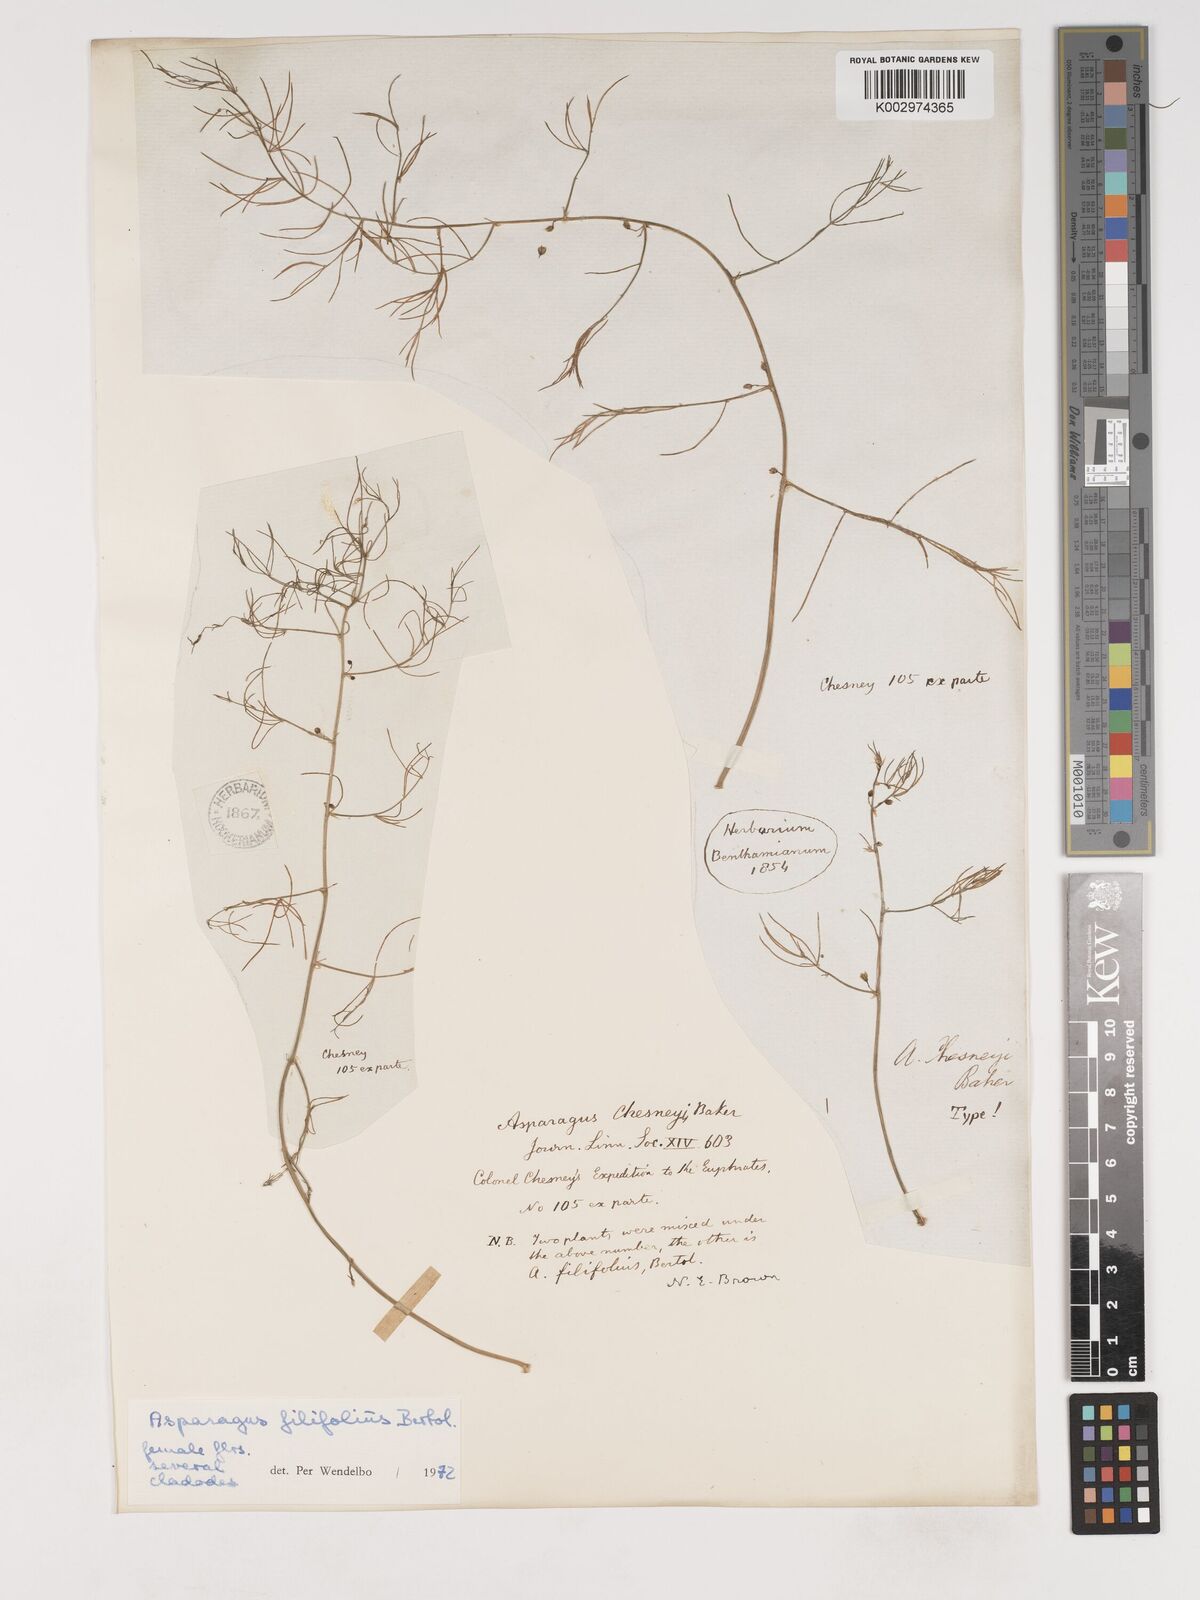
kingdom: Plantae
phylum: Tracheophyta
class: Liliopsida
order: Asparagales
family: Asparagaceae
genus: Asparagus
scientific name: Asparagus filifolius
